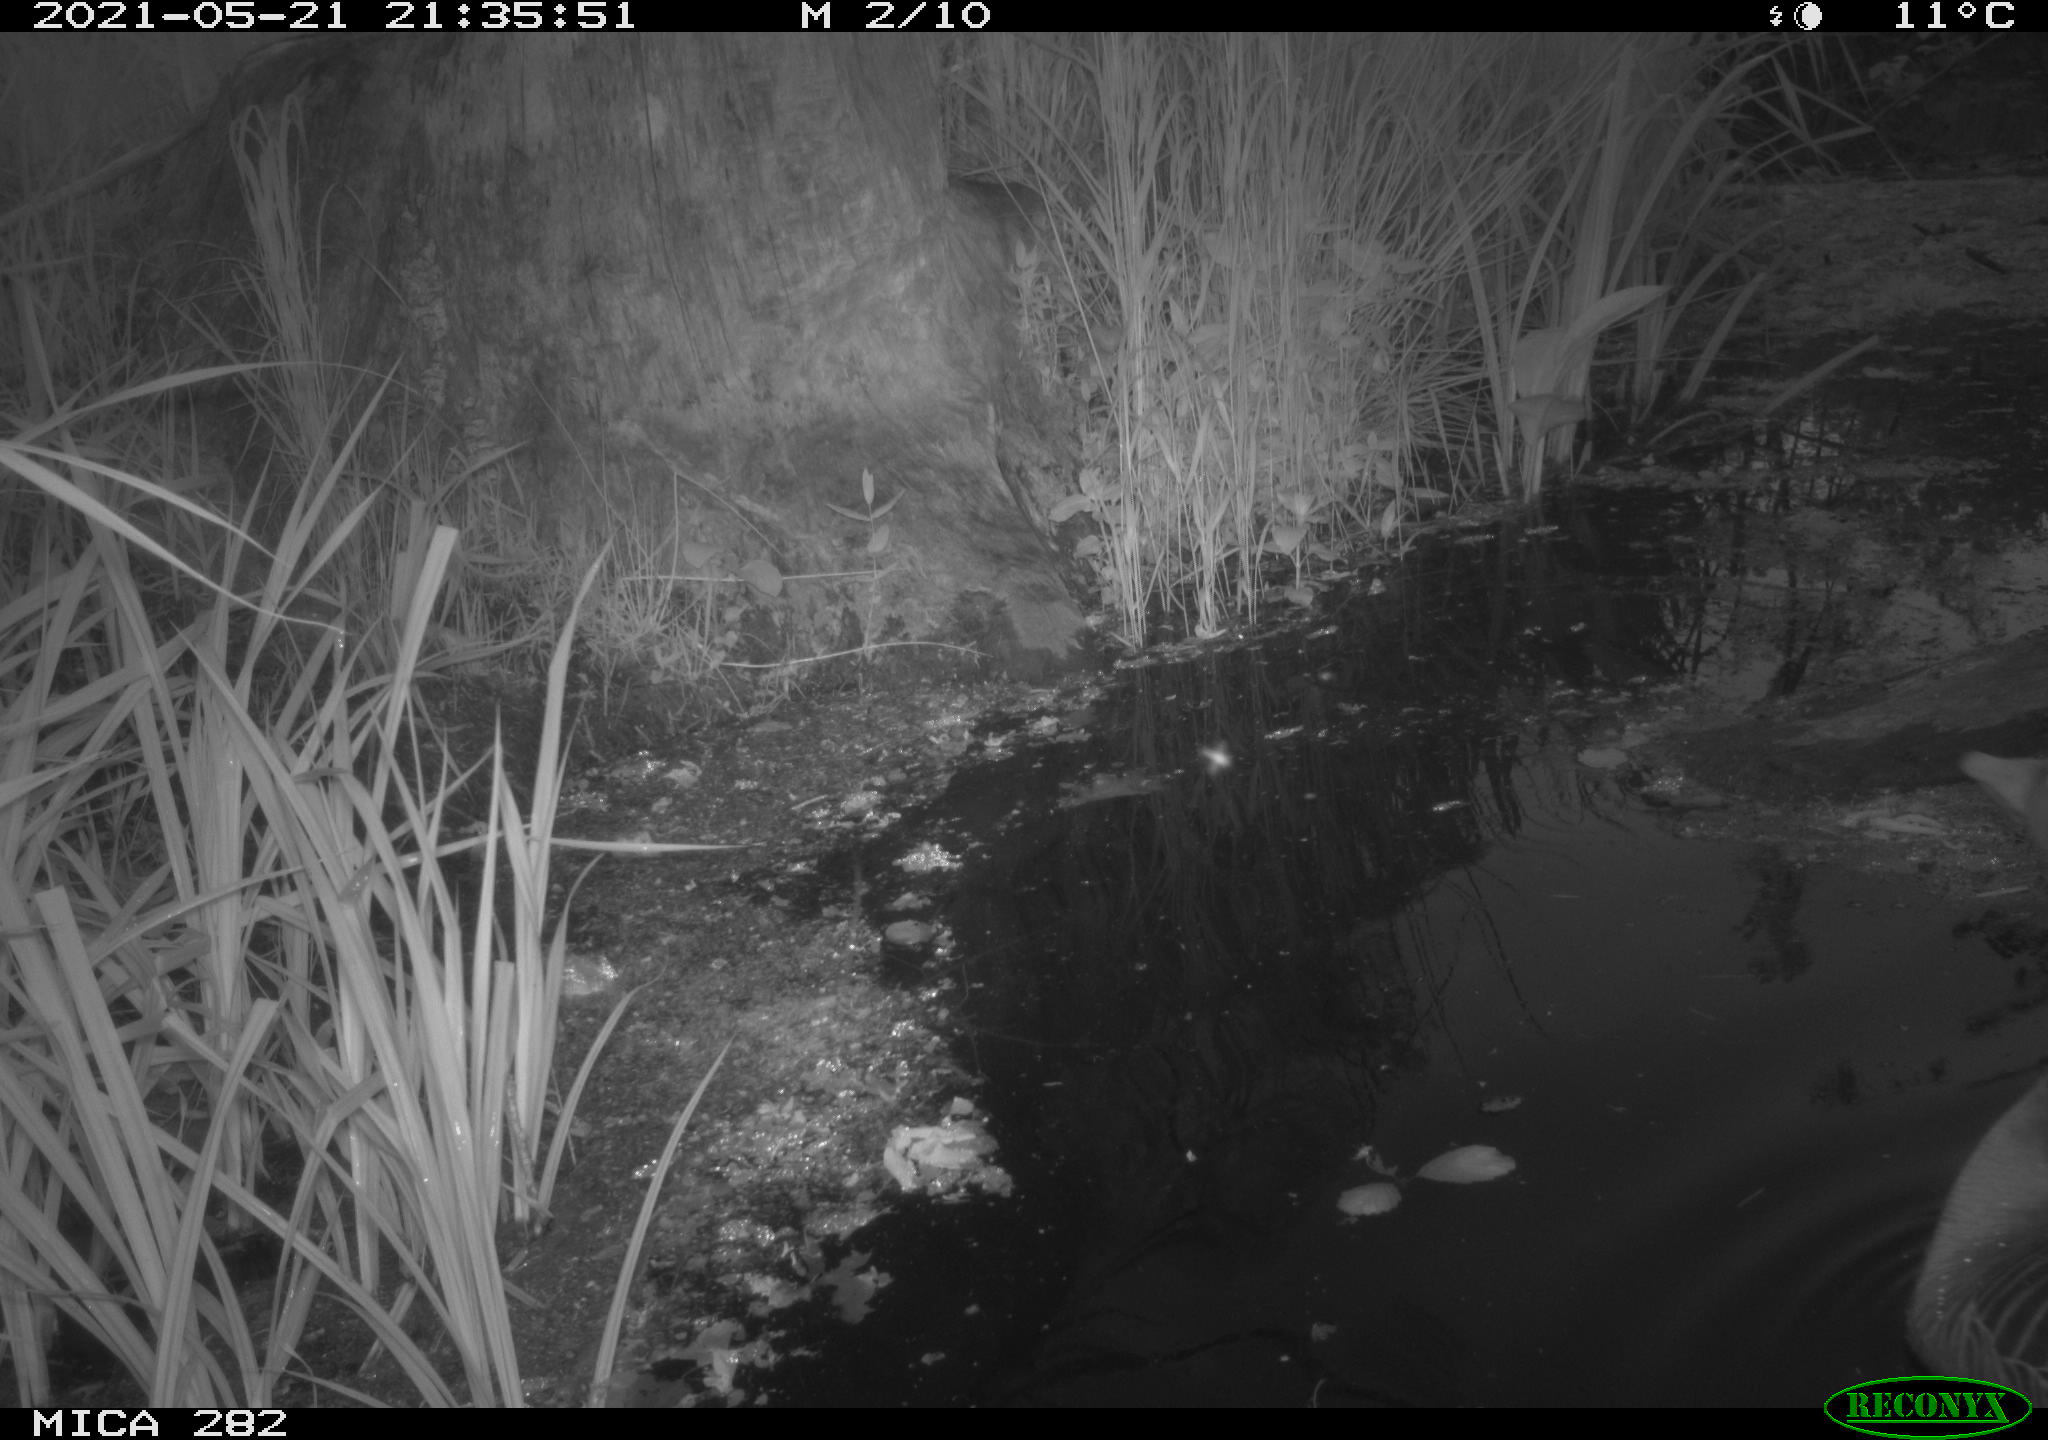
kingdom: Animalia
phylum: Chordata
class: Aves
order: Anseriformes
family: Anatidae
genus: Anser
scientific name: Anser anser
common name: Greylag goose
